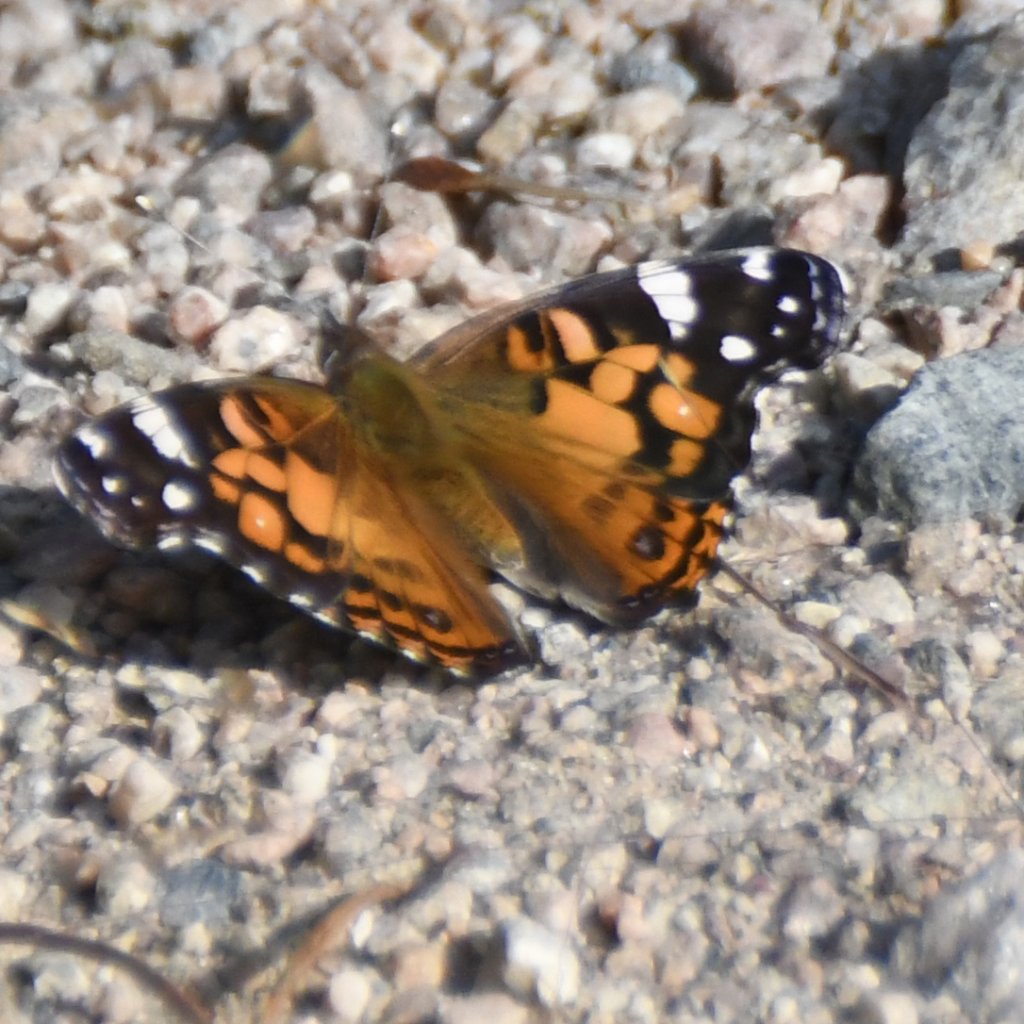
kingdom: Animalia
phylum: Arthropoda
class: Insecta
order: Lepidoptera
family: Nymphalidae
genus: Vanessa
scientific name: Vanessa virginiensis
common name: American Lady
